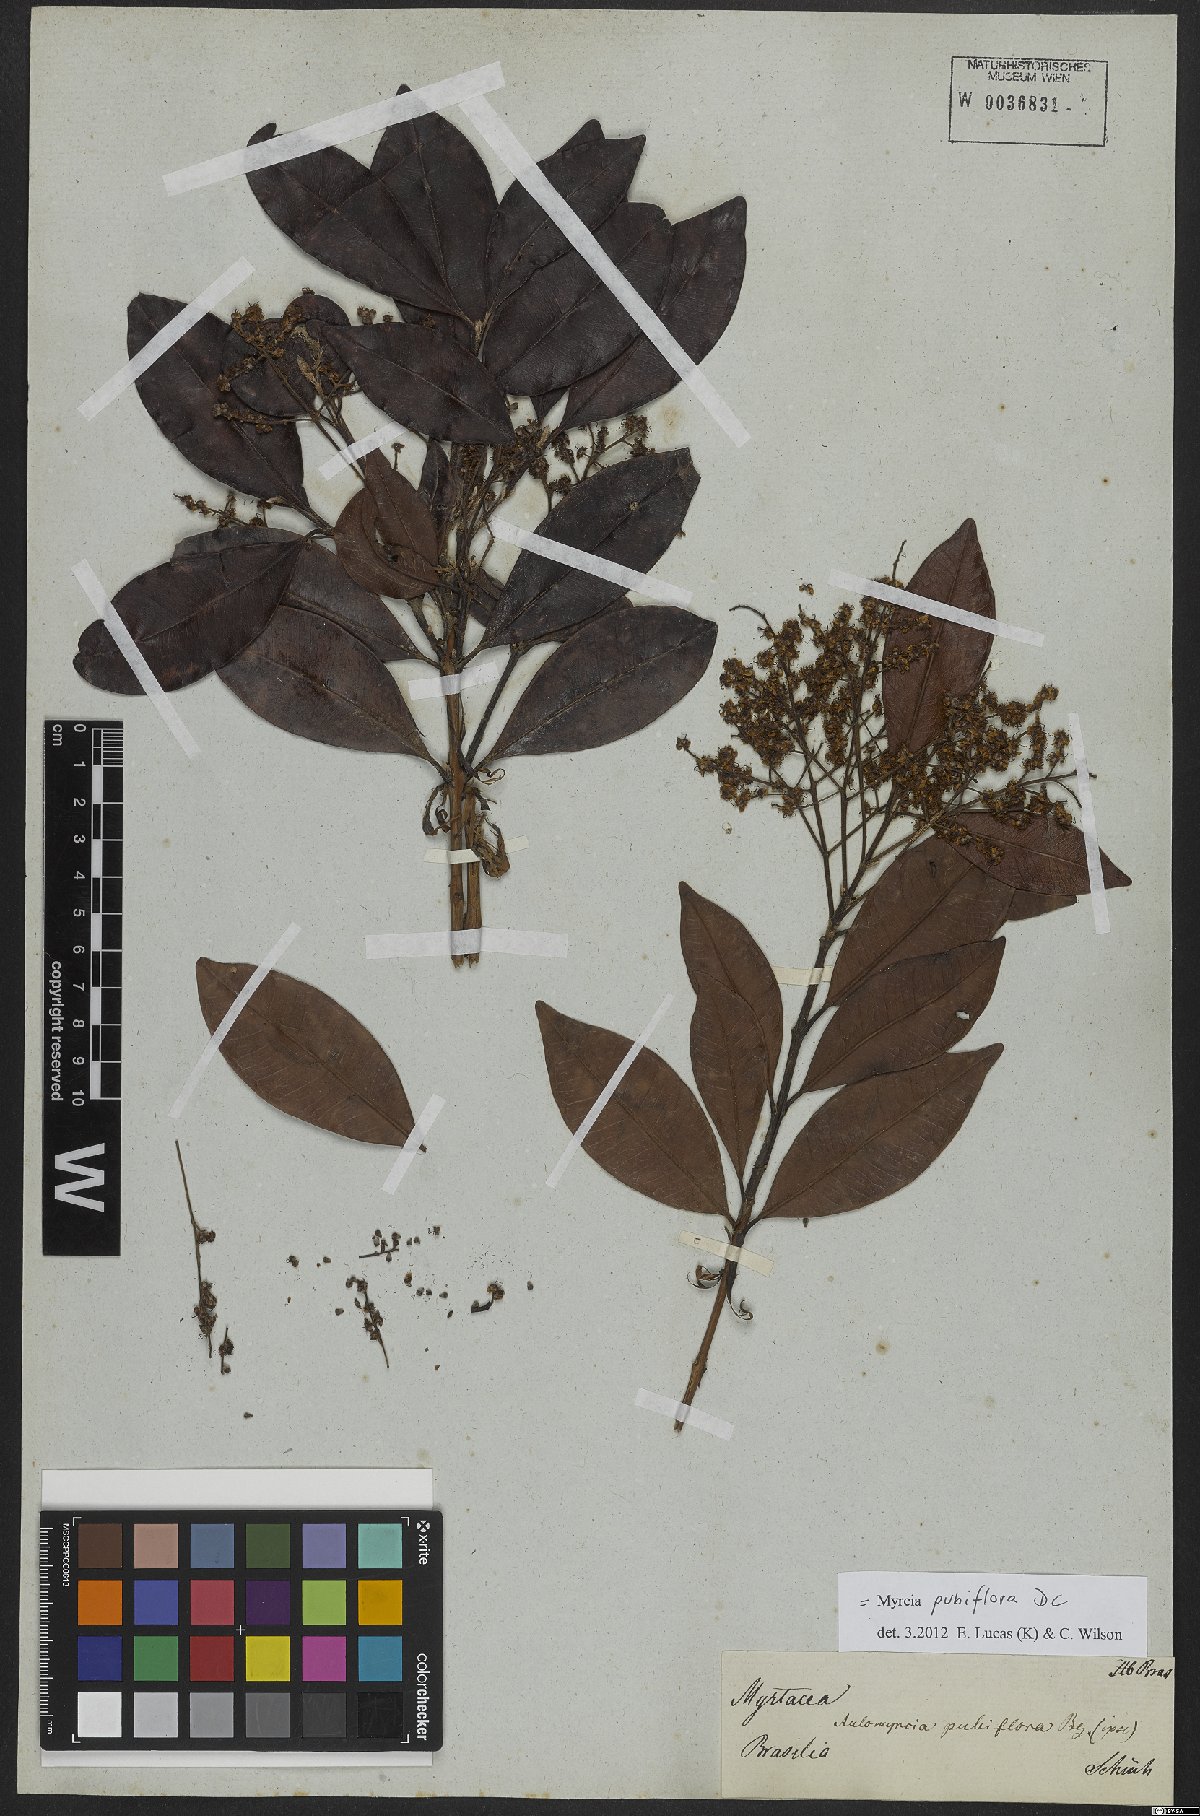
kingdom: Plantae
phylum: Tracheophyta
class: Magnoliopsida
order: Myrtales
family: Myrtaceae
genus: Myrcia
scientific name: Myrcia pubiflora
